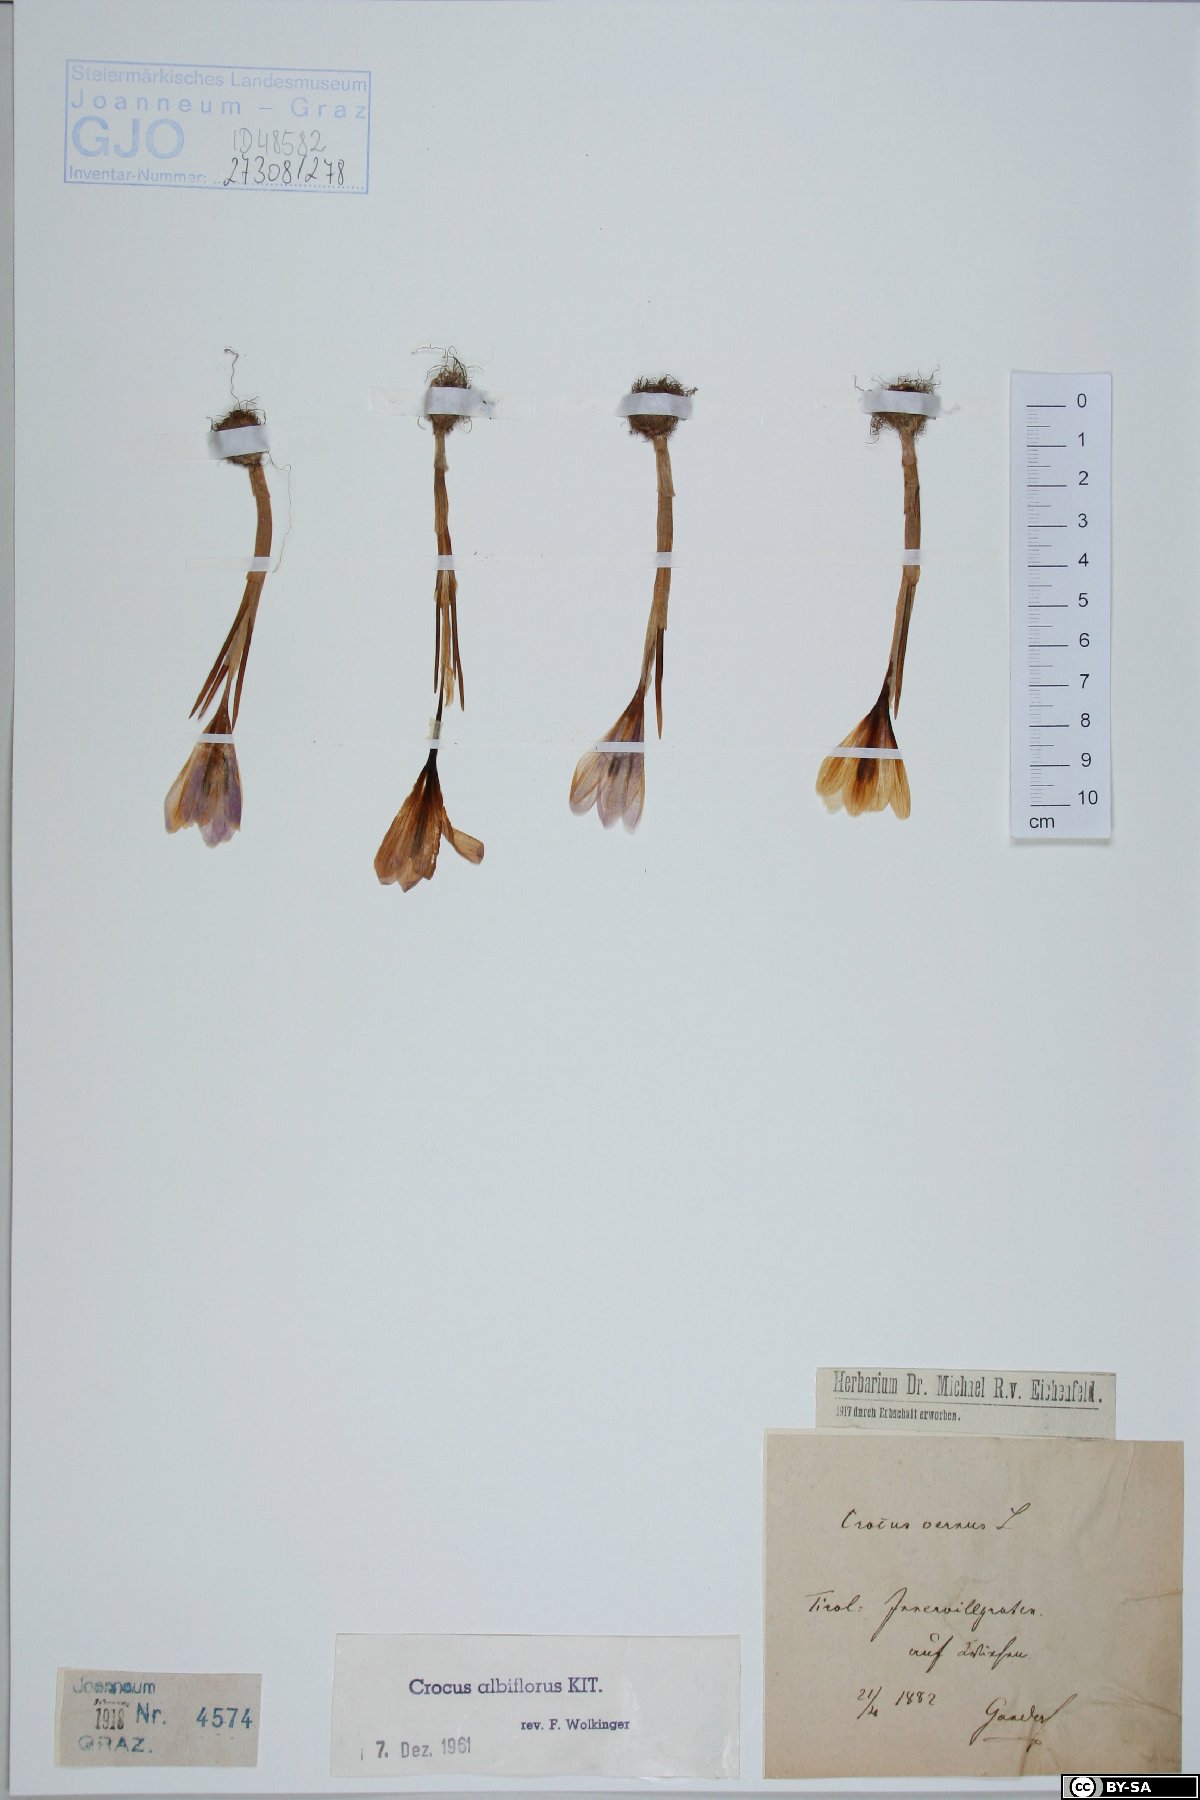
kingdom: Plantae
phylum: Tracheophyta
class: Liliopsida
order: Asparagales
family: Iridaceae
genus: Crocus
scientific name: Crocus vernus
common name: Spring crocus
